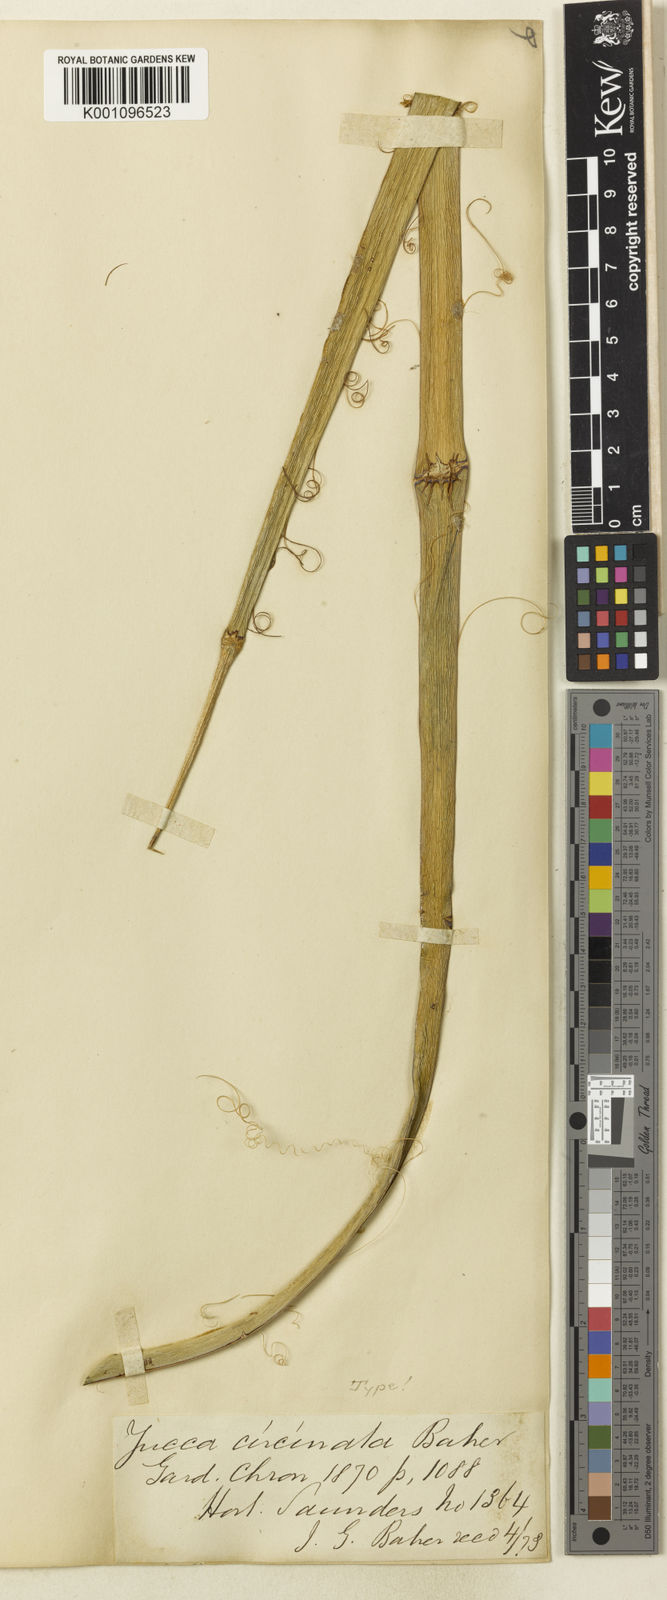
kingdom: Plantae
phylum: Tracheophyta
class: Liliopsida
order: Asparagales
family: Asparagaceae
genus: Yucca
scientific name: Yucca periculosa
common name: Izote yucca
